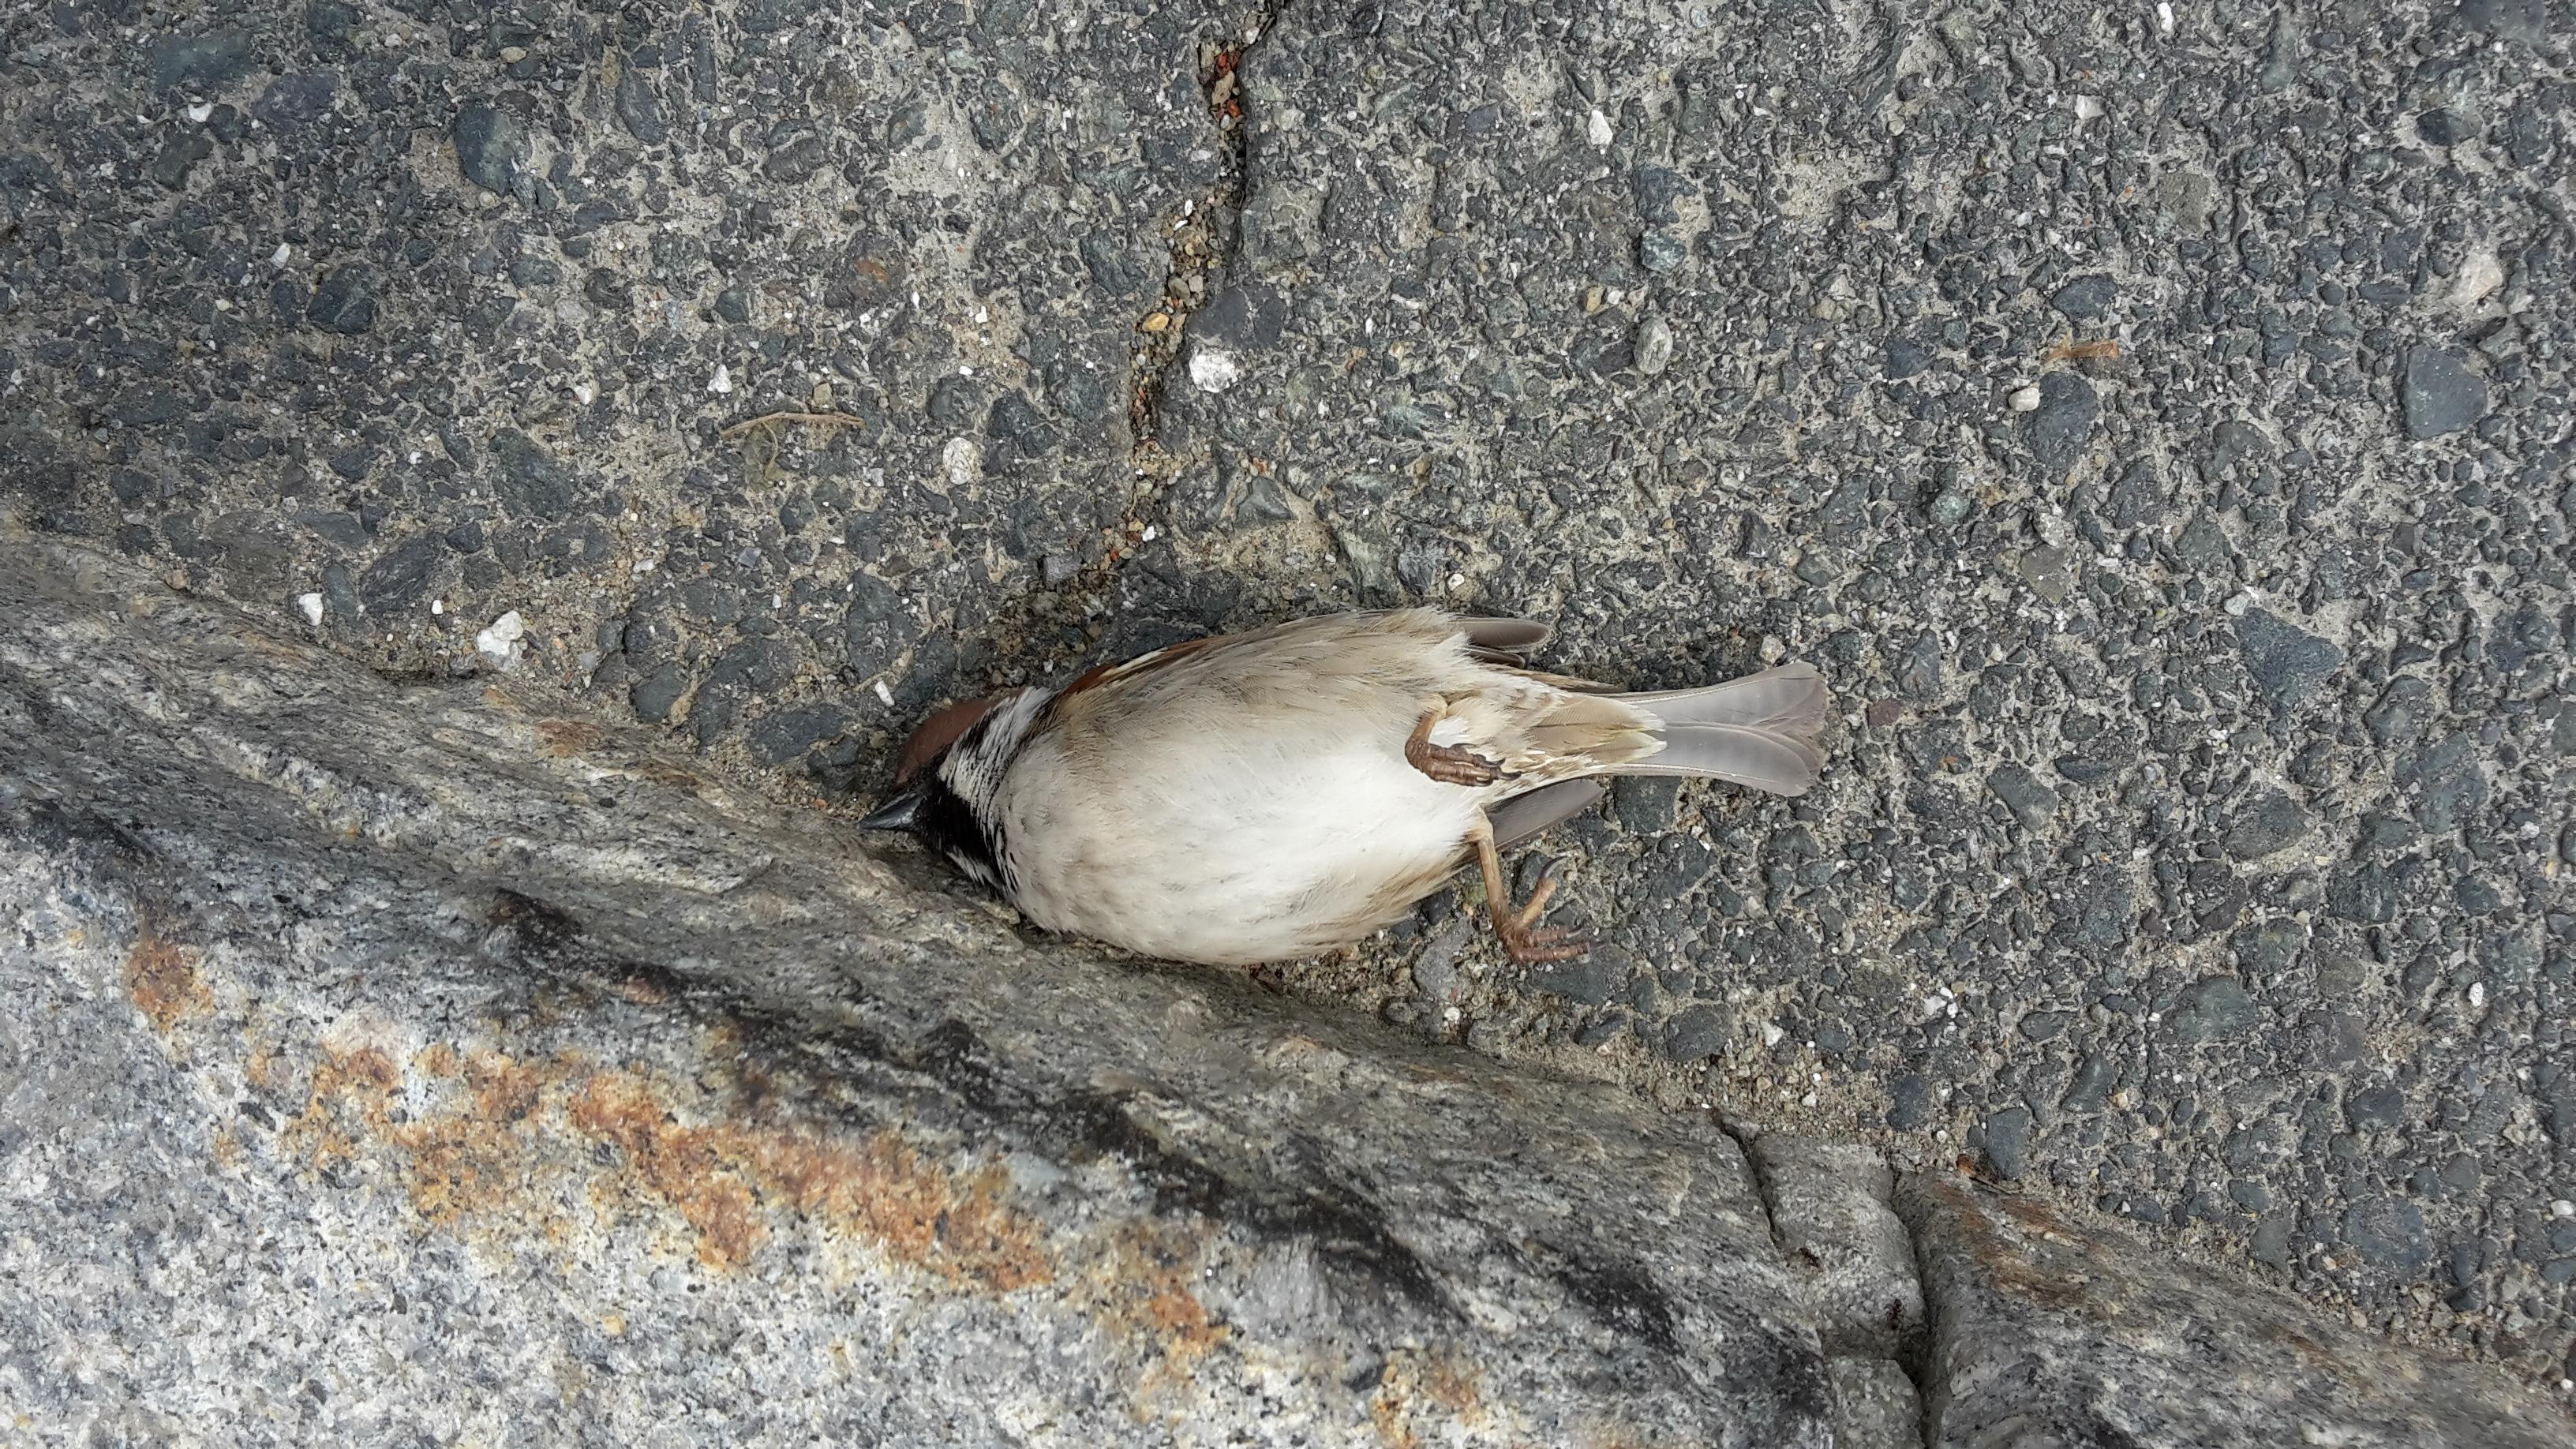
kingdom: Animalia
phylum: Chordata
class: Aves
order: Passeriformes
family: Passeridae
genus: Passer
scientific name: Passer montanus
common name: Eurasian tree sparrow
